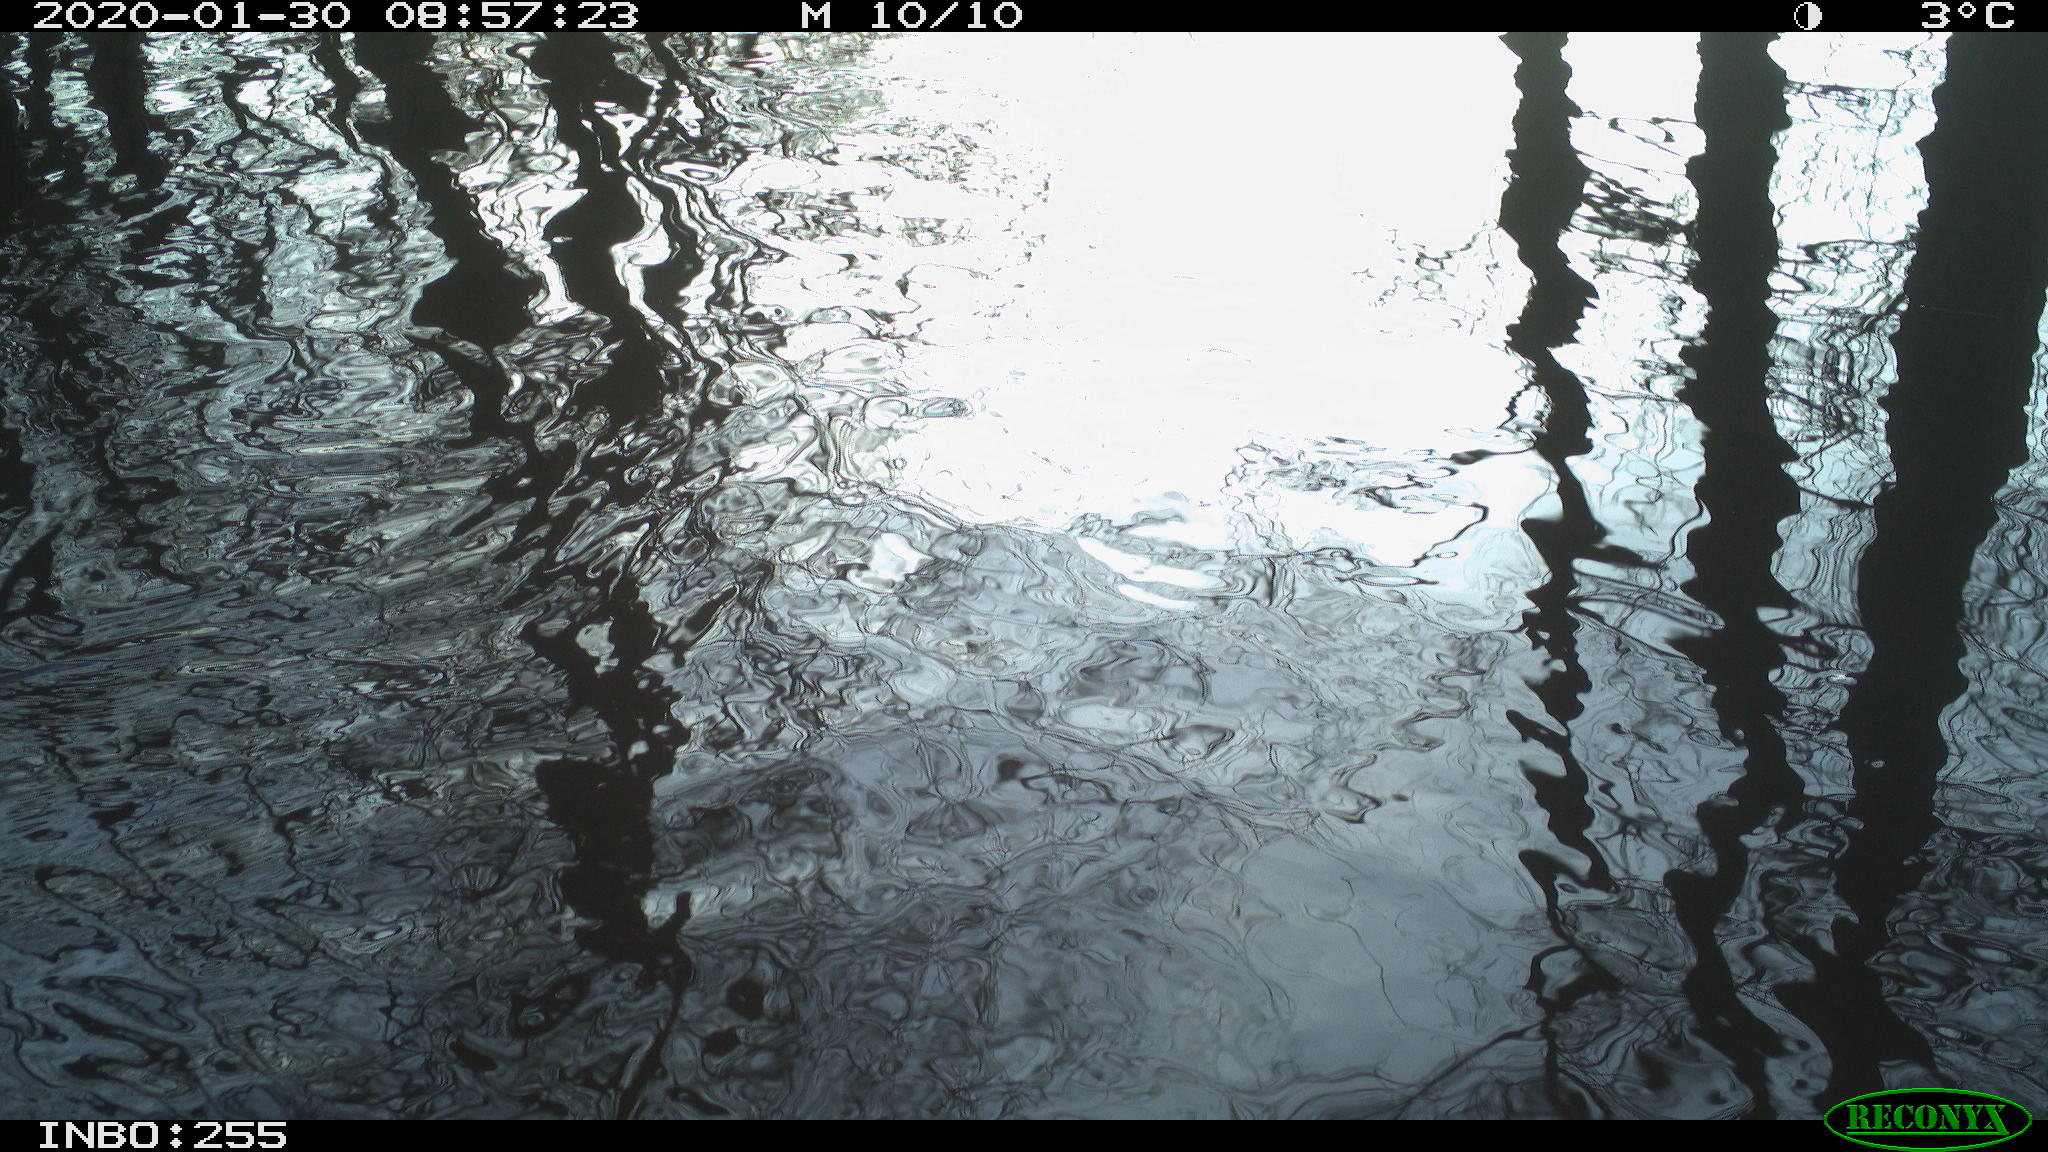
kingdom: Animalia
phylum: Chordata
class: Aves
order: Gruiformes
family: Rallidae
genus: Fulica
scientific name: Fulica atra
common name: Eurasian coot
